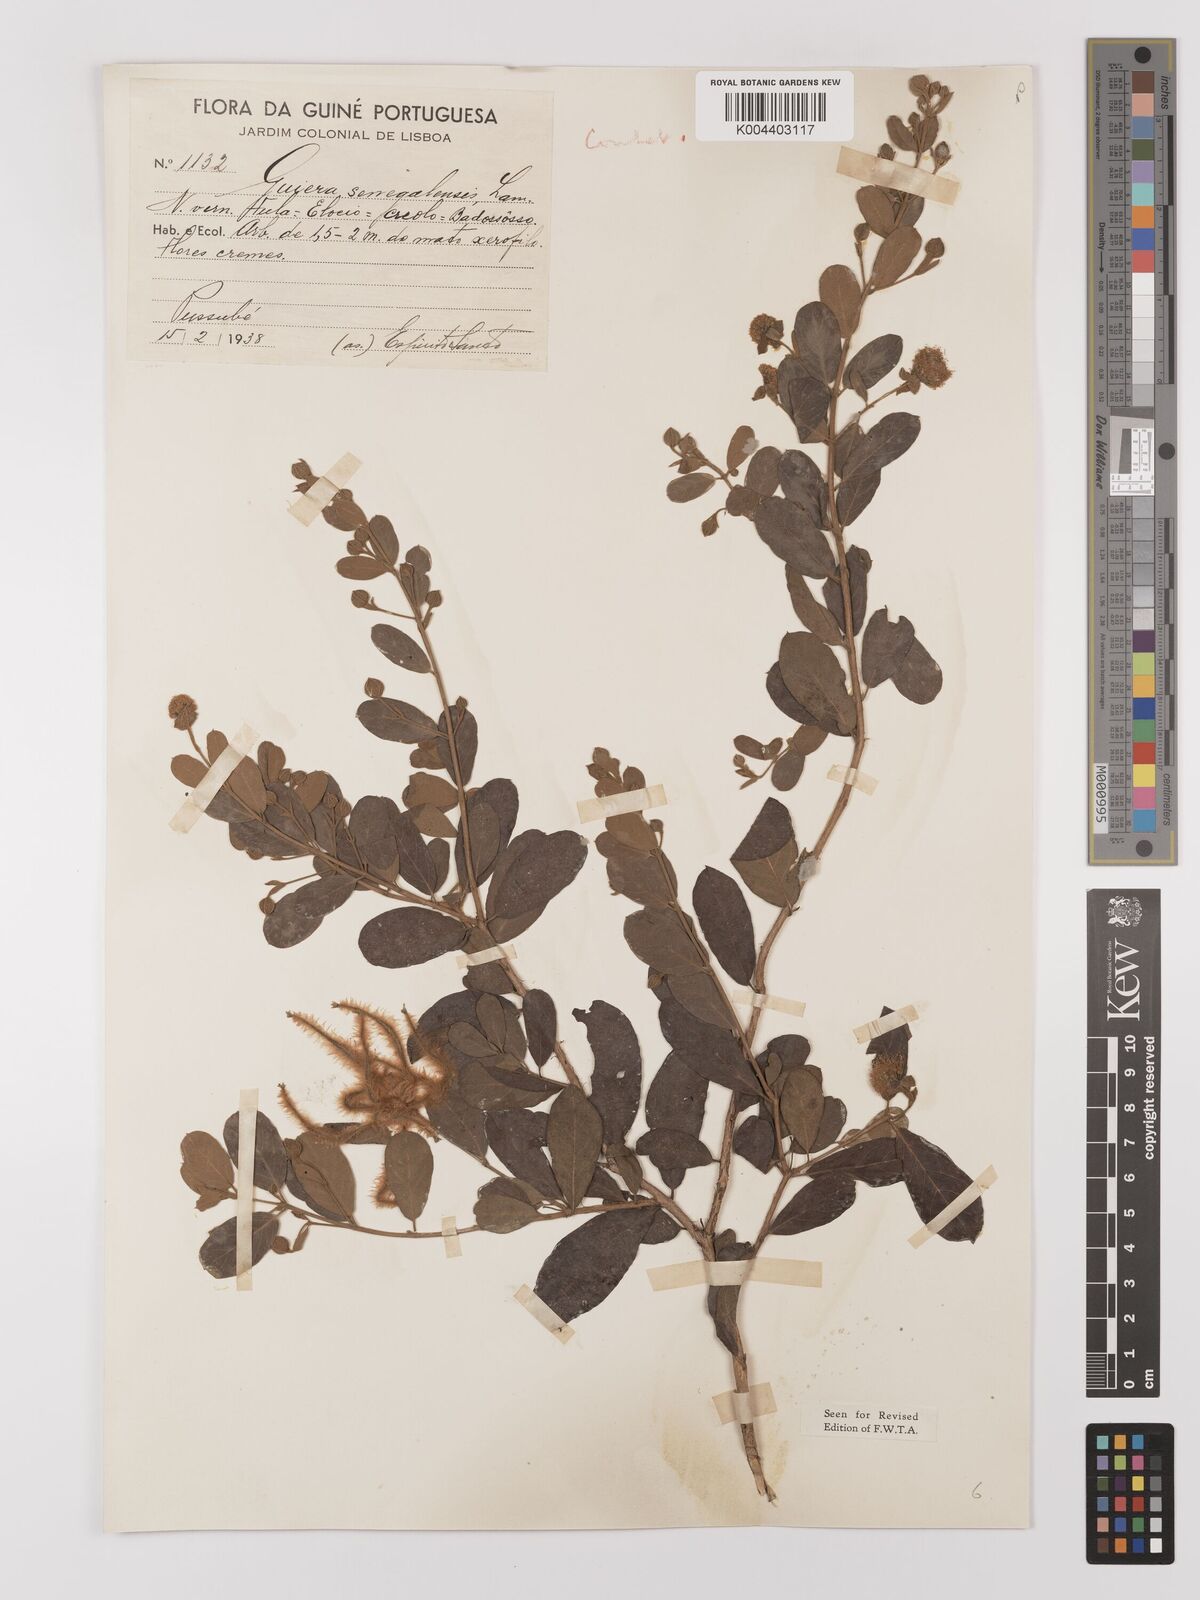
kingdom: Plantae
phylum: Tracheophyta
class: Magnoliopsida
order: Myrtales
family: Combretaceae
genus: Guiera
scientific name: Guiera
